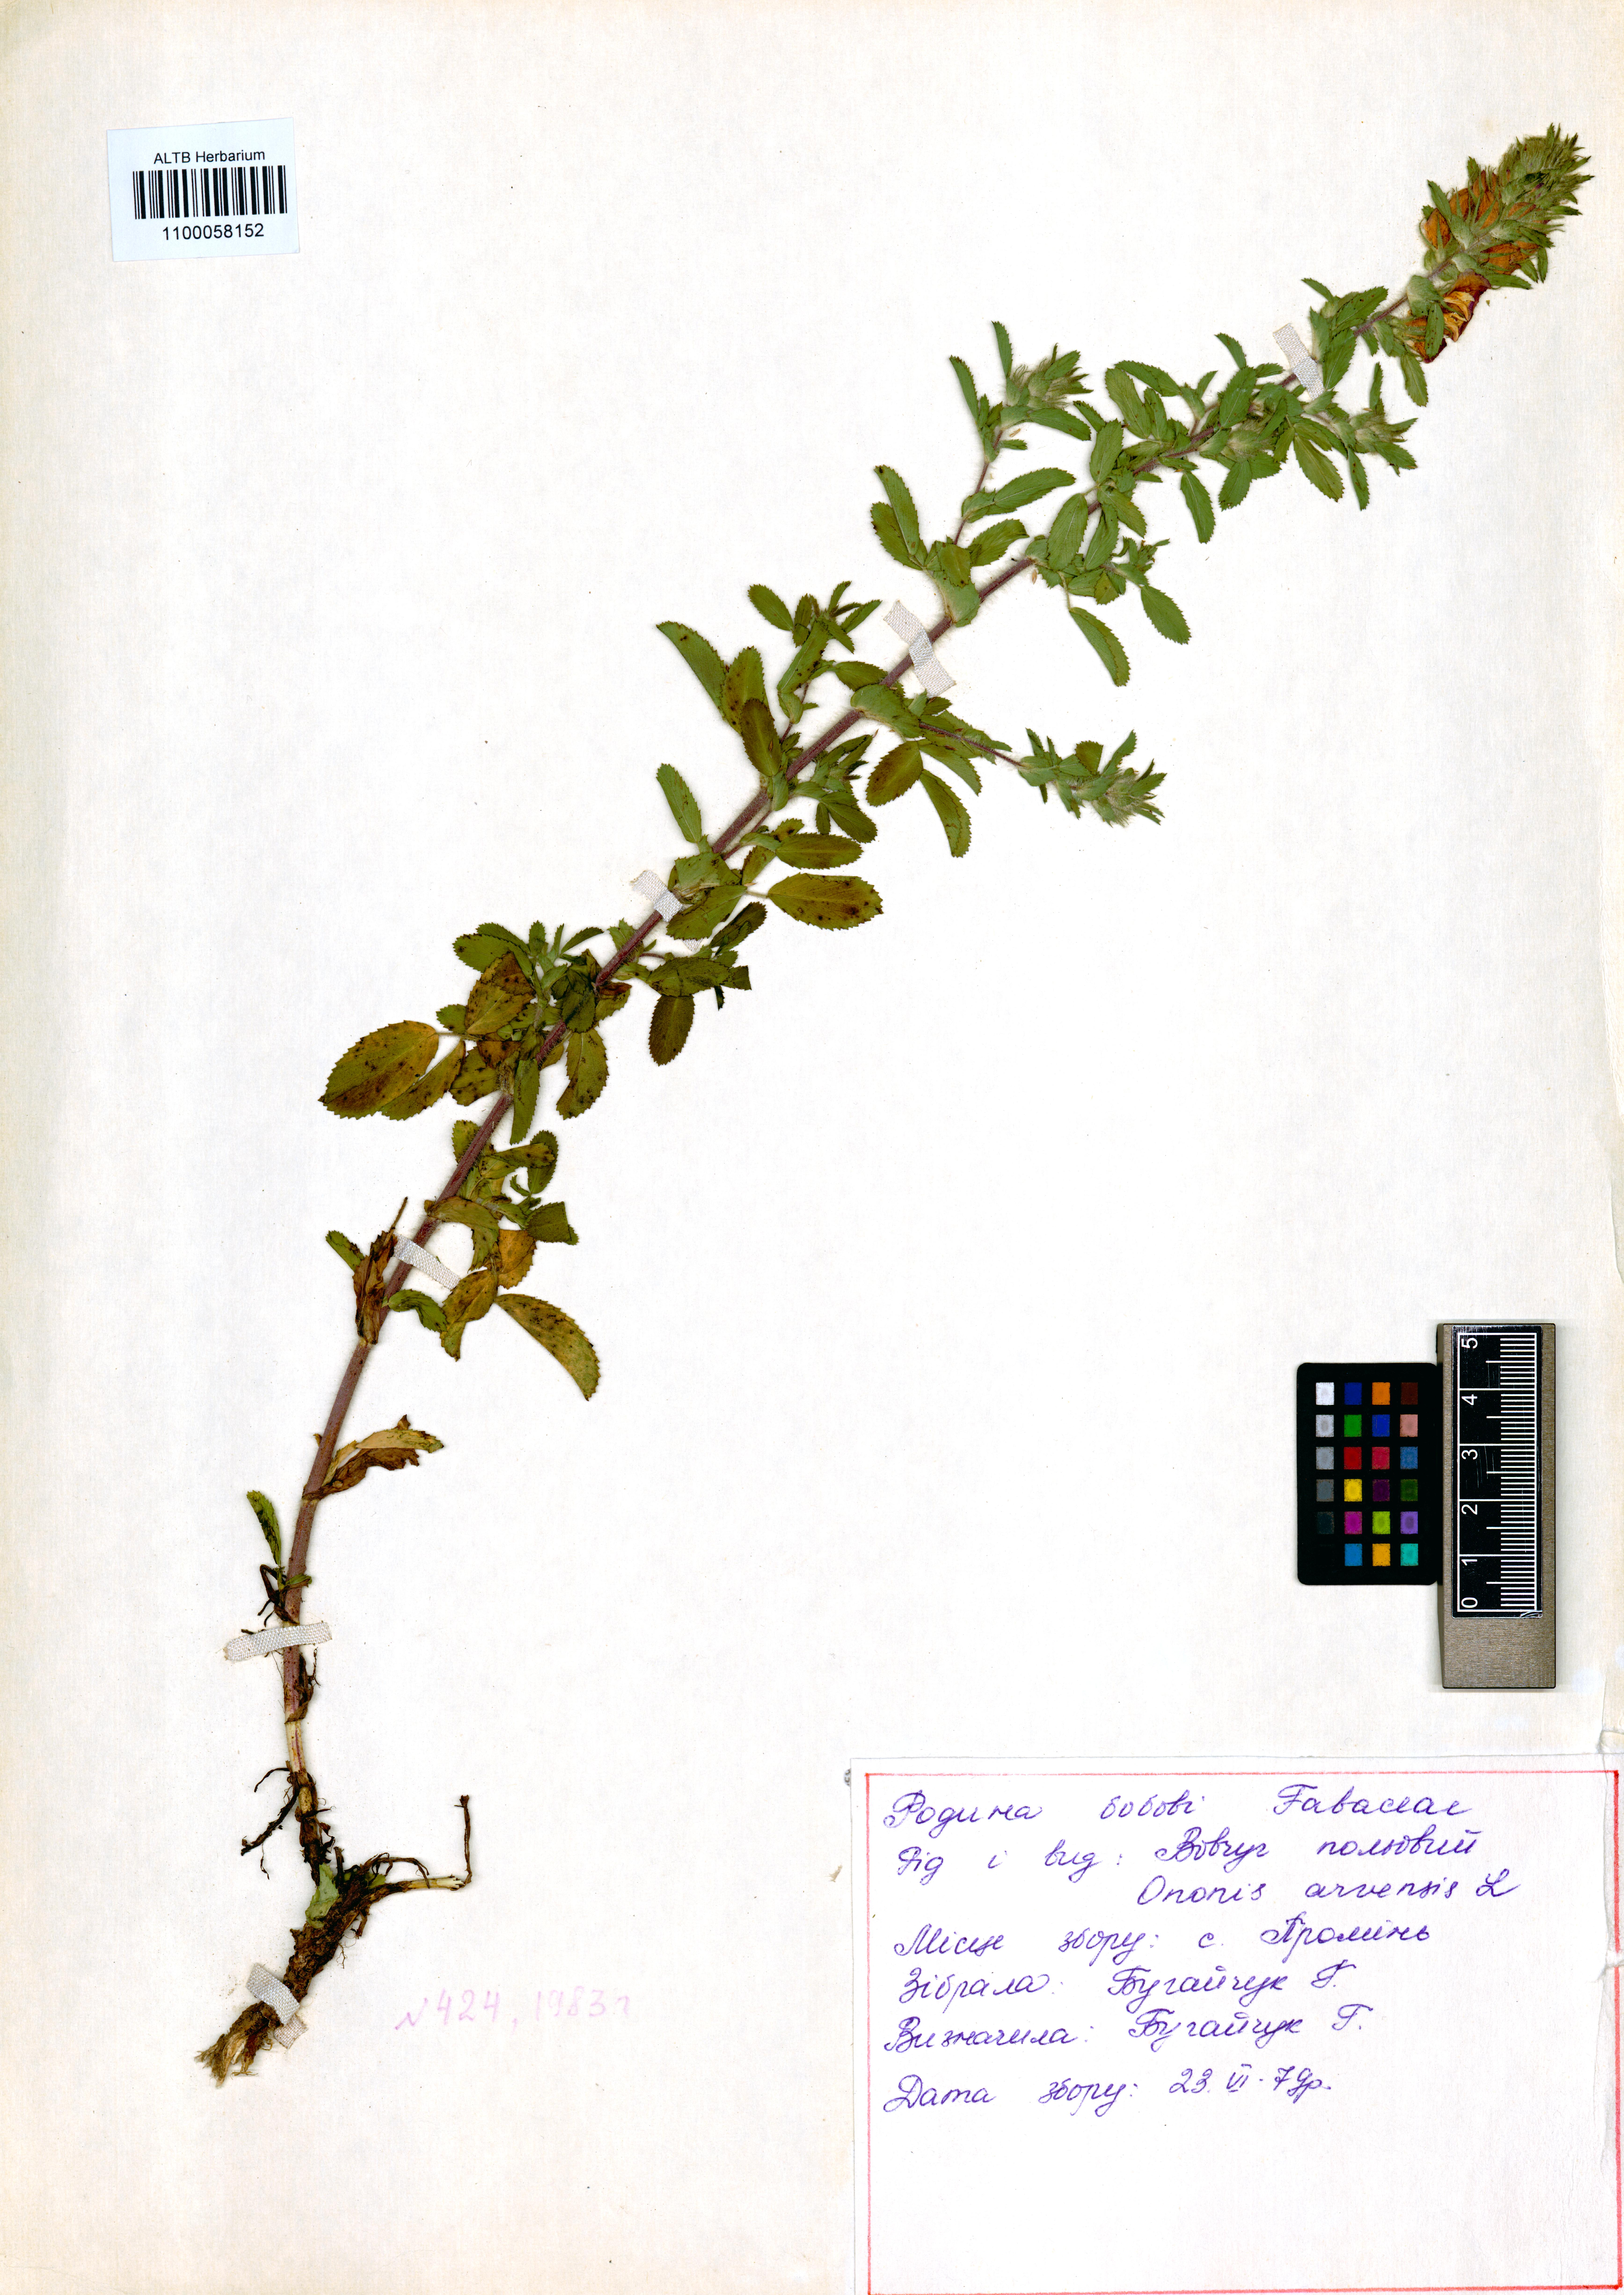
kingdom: Plantae
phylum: Tracheophyta
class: Magnoliopsida
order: Fabales
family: Fabaceae
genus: Ononis
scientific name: Ononis arvensis
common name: Field restharrow
